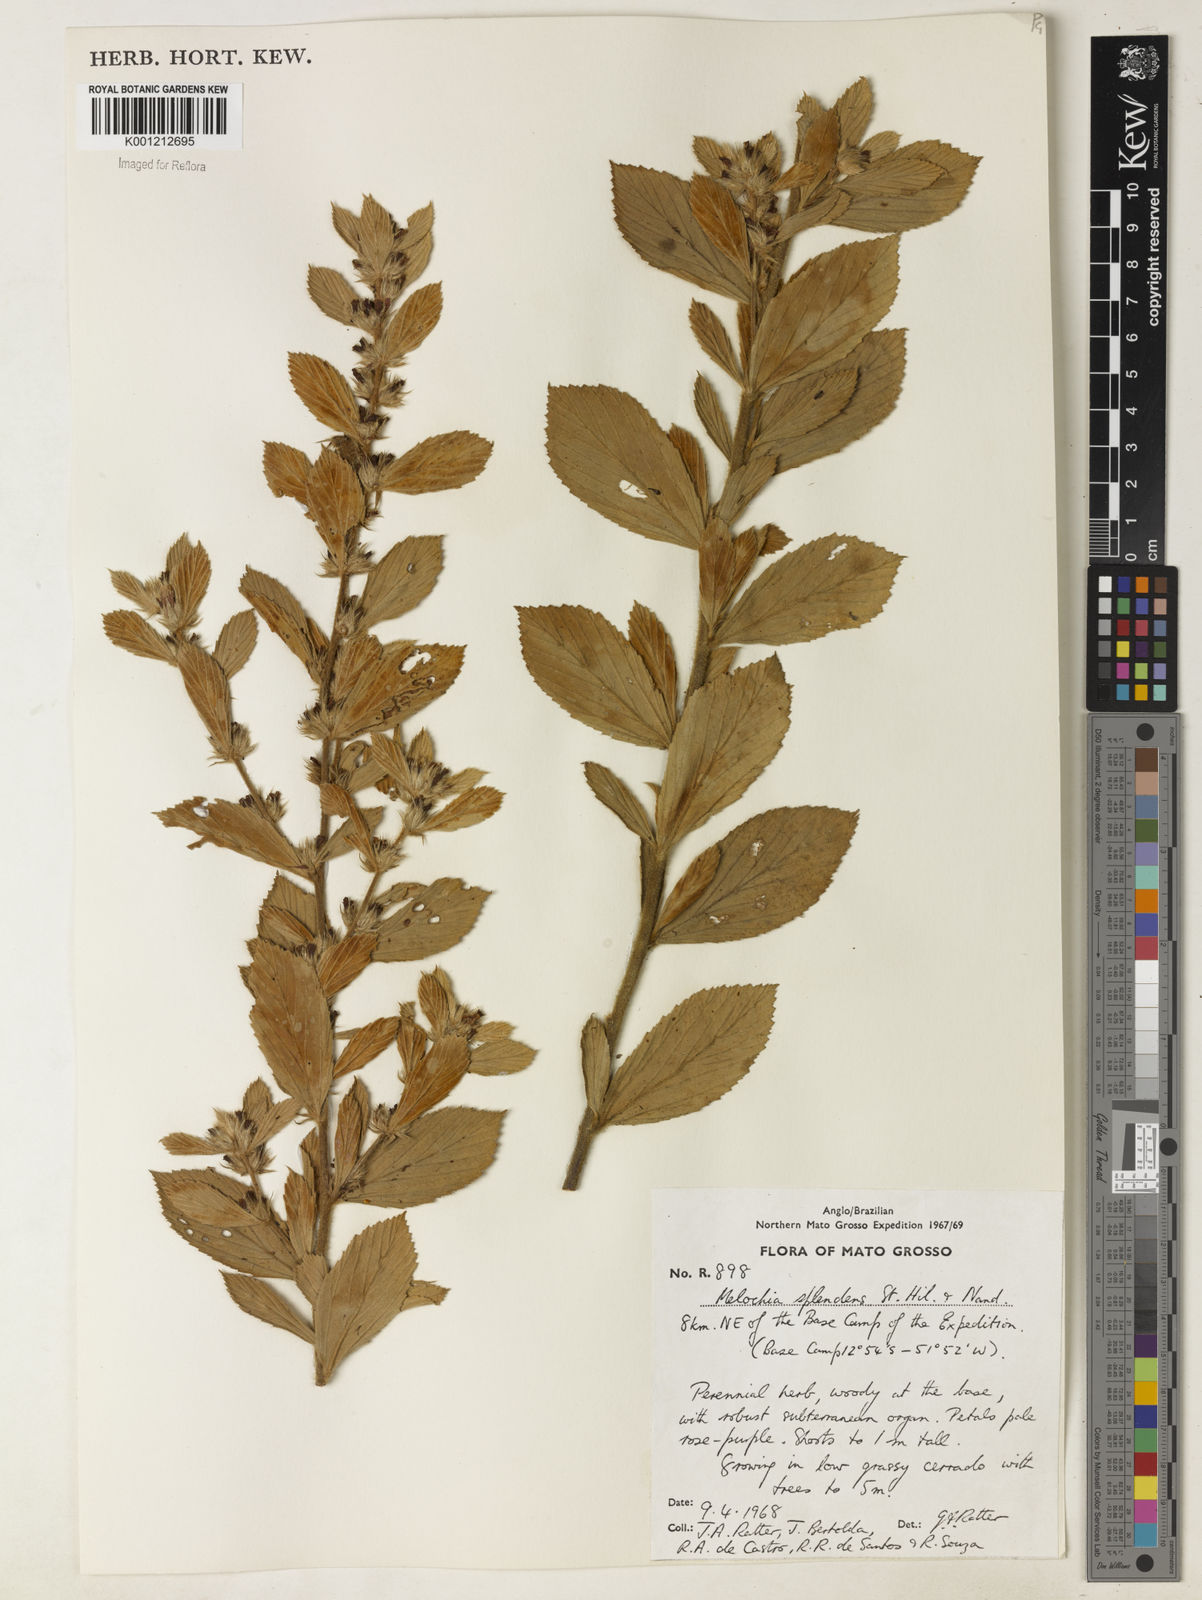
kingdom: Plantae
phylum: Tracheophyta
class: Magnoliopsida
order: Malvales
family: Malvaceae
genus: Melochia
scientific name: Melochia splendens
